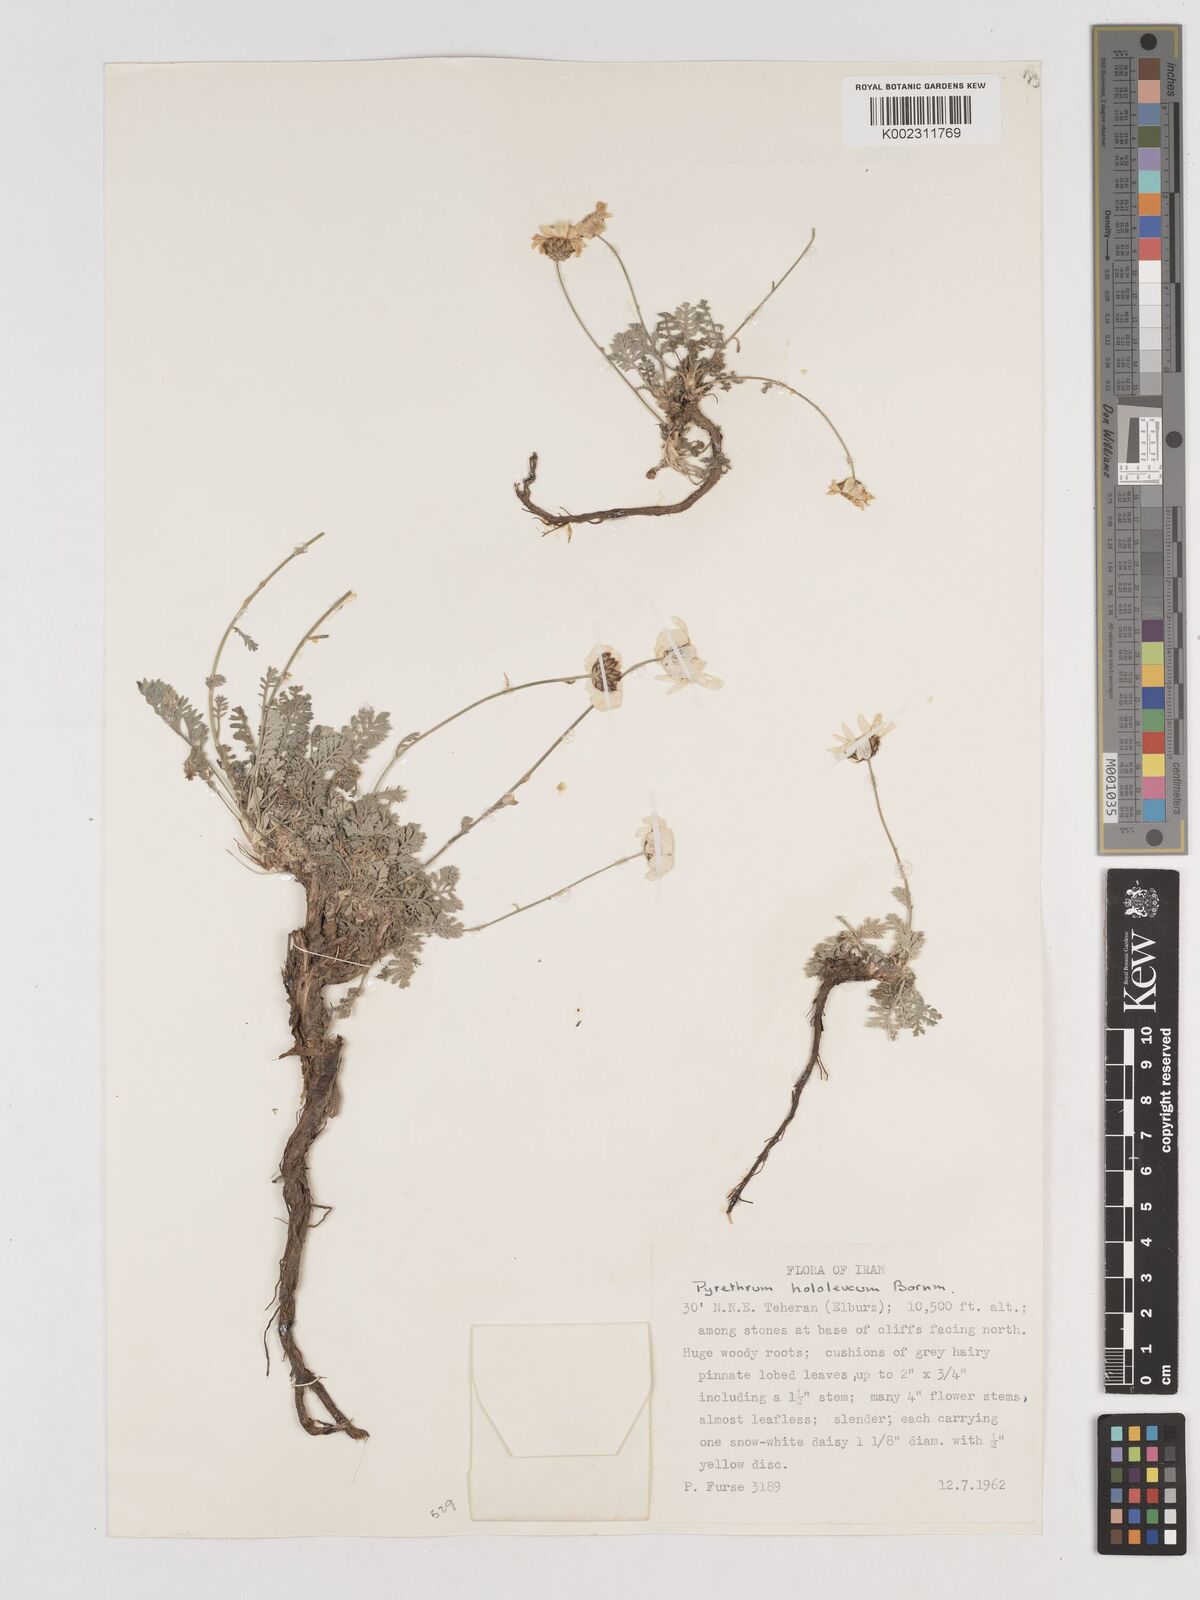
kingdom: Plantae
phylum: Tracheophyta
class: Magnoliopsida
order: Asterales
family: Asteraceae
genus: Tanacetum
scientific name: Tanacetum hololeucum
